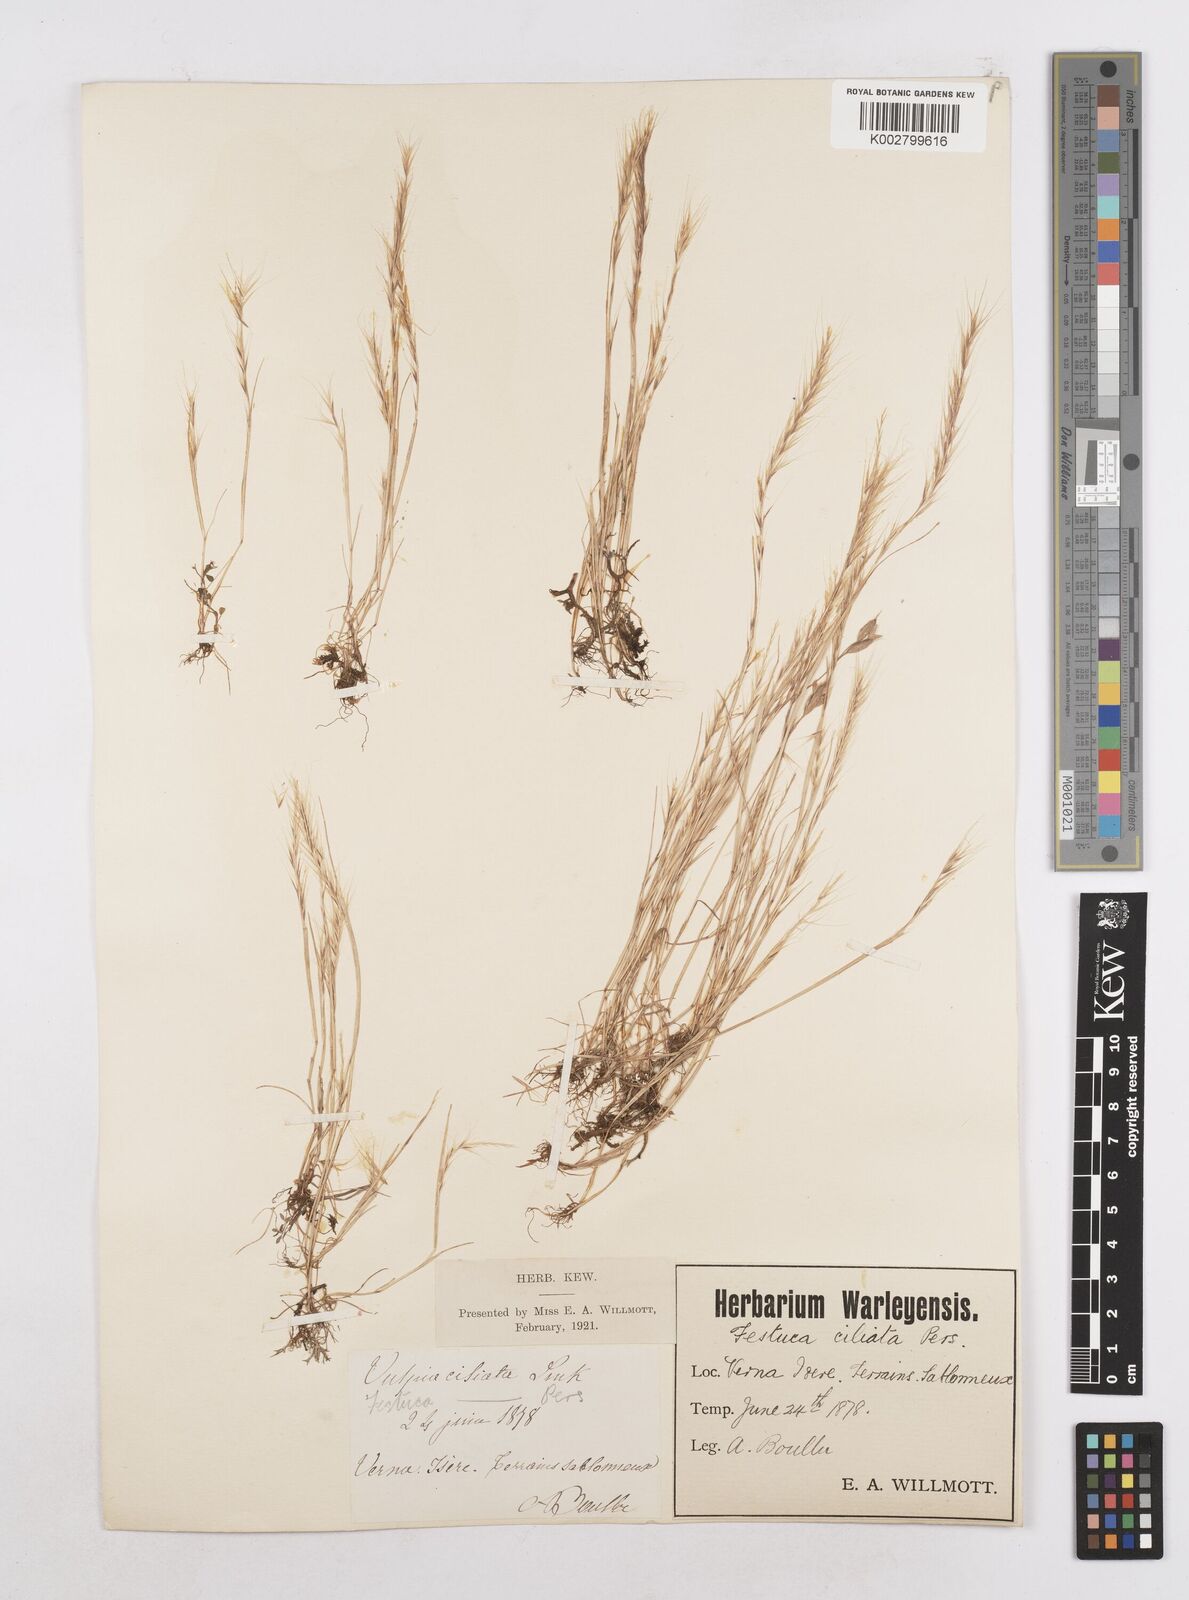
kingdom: Plantae
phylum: Tracheophyta
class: Liliopsida
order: Poales
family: Poaceae
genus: Festuca
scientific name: Festuca
